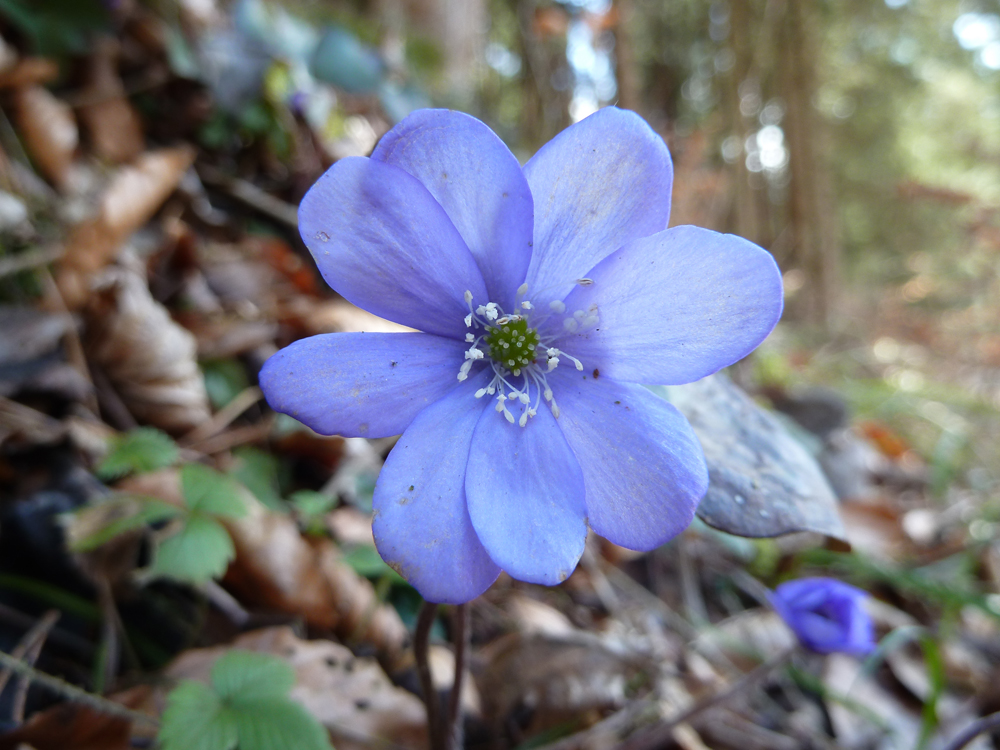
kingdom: Plantae
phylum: Tracheophyta
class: Magnoliopsida
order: Ranunculales
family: Ranunculaceae
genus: Hepatica
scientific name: Hepatica nobilis
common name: Liverleaf
